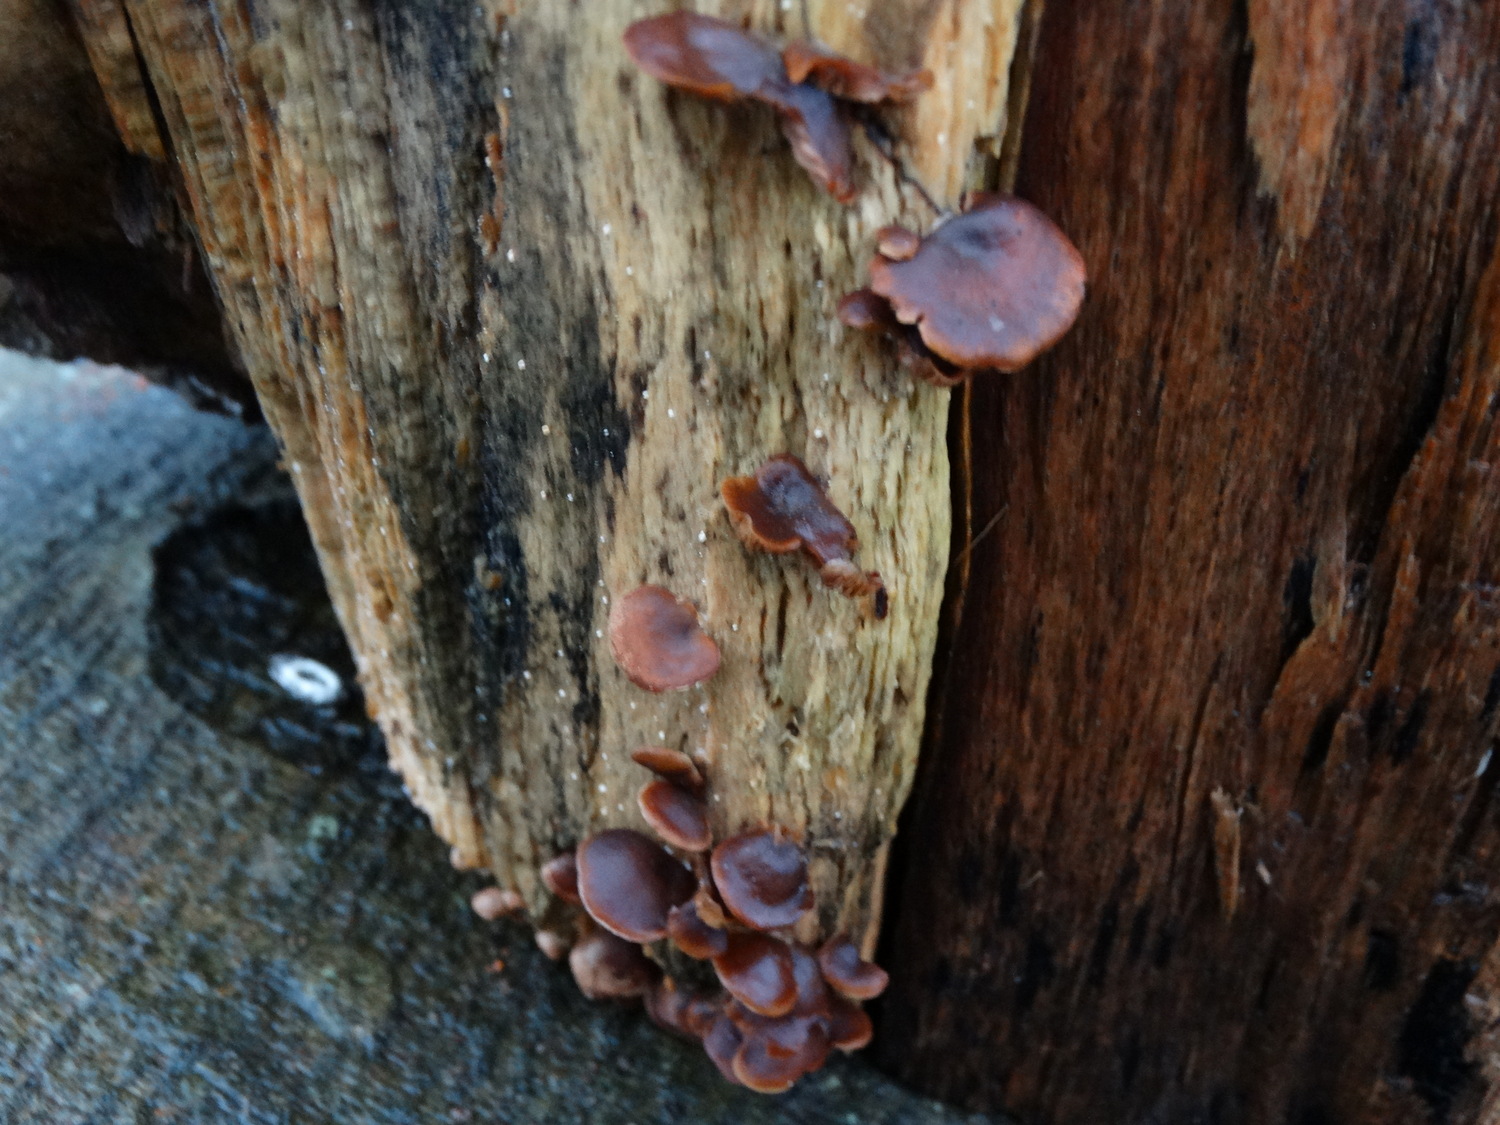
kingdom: Fungi
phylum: Basidiomycota
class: Agaricomycetes
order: Agaricales
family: Strophariaceae
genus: Deconica
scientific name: Deconica horizontalis
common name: ved-stråhat
